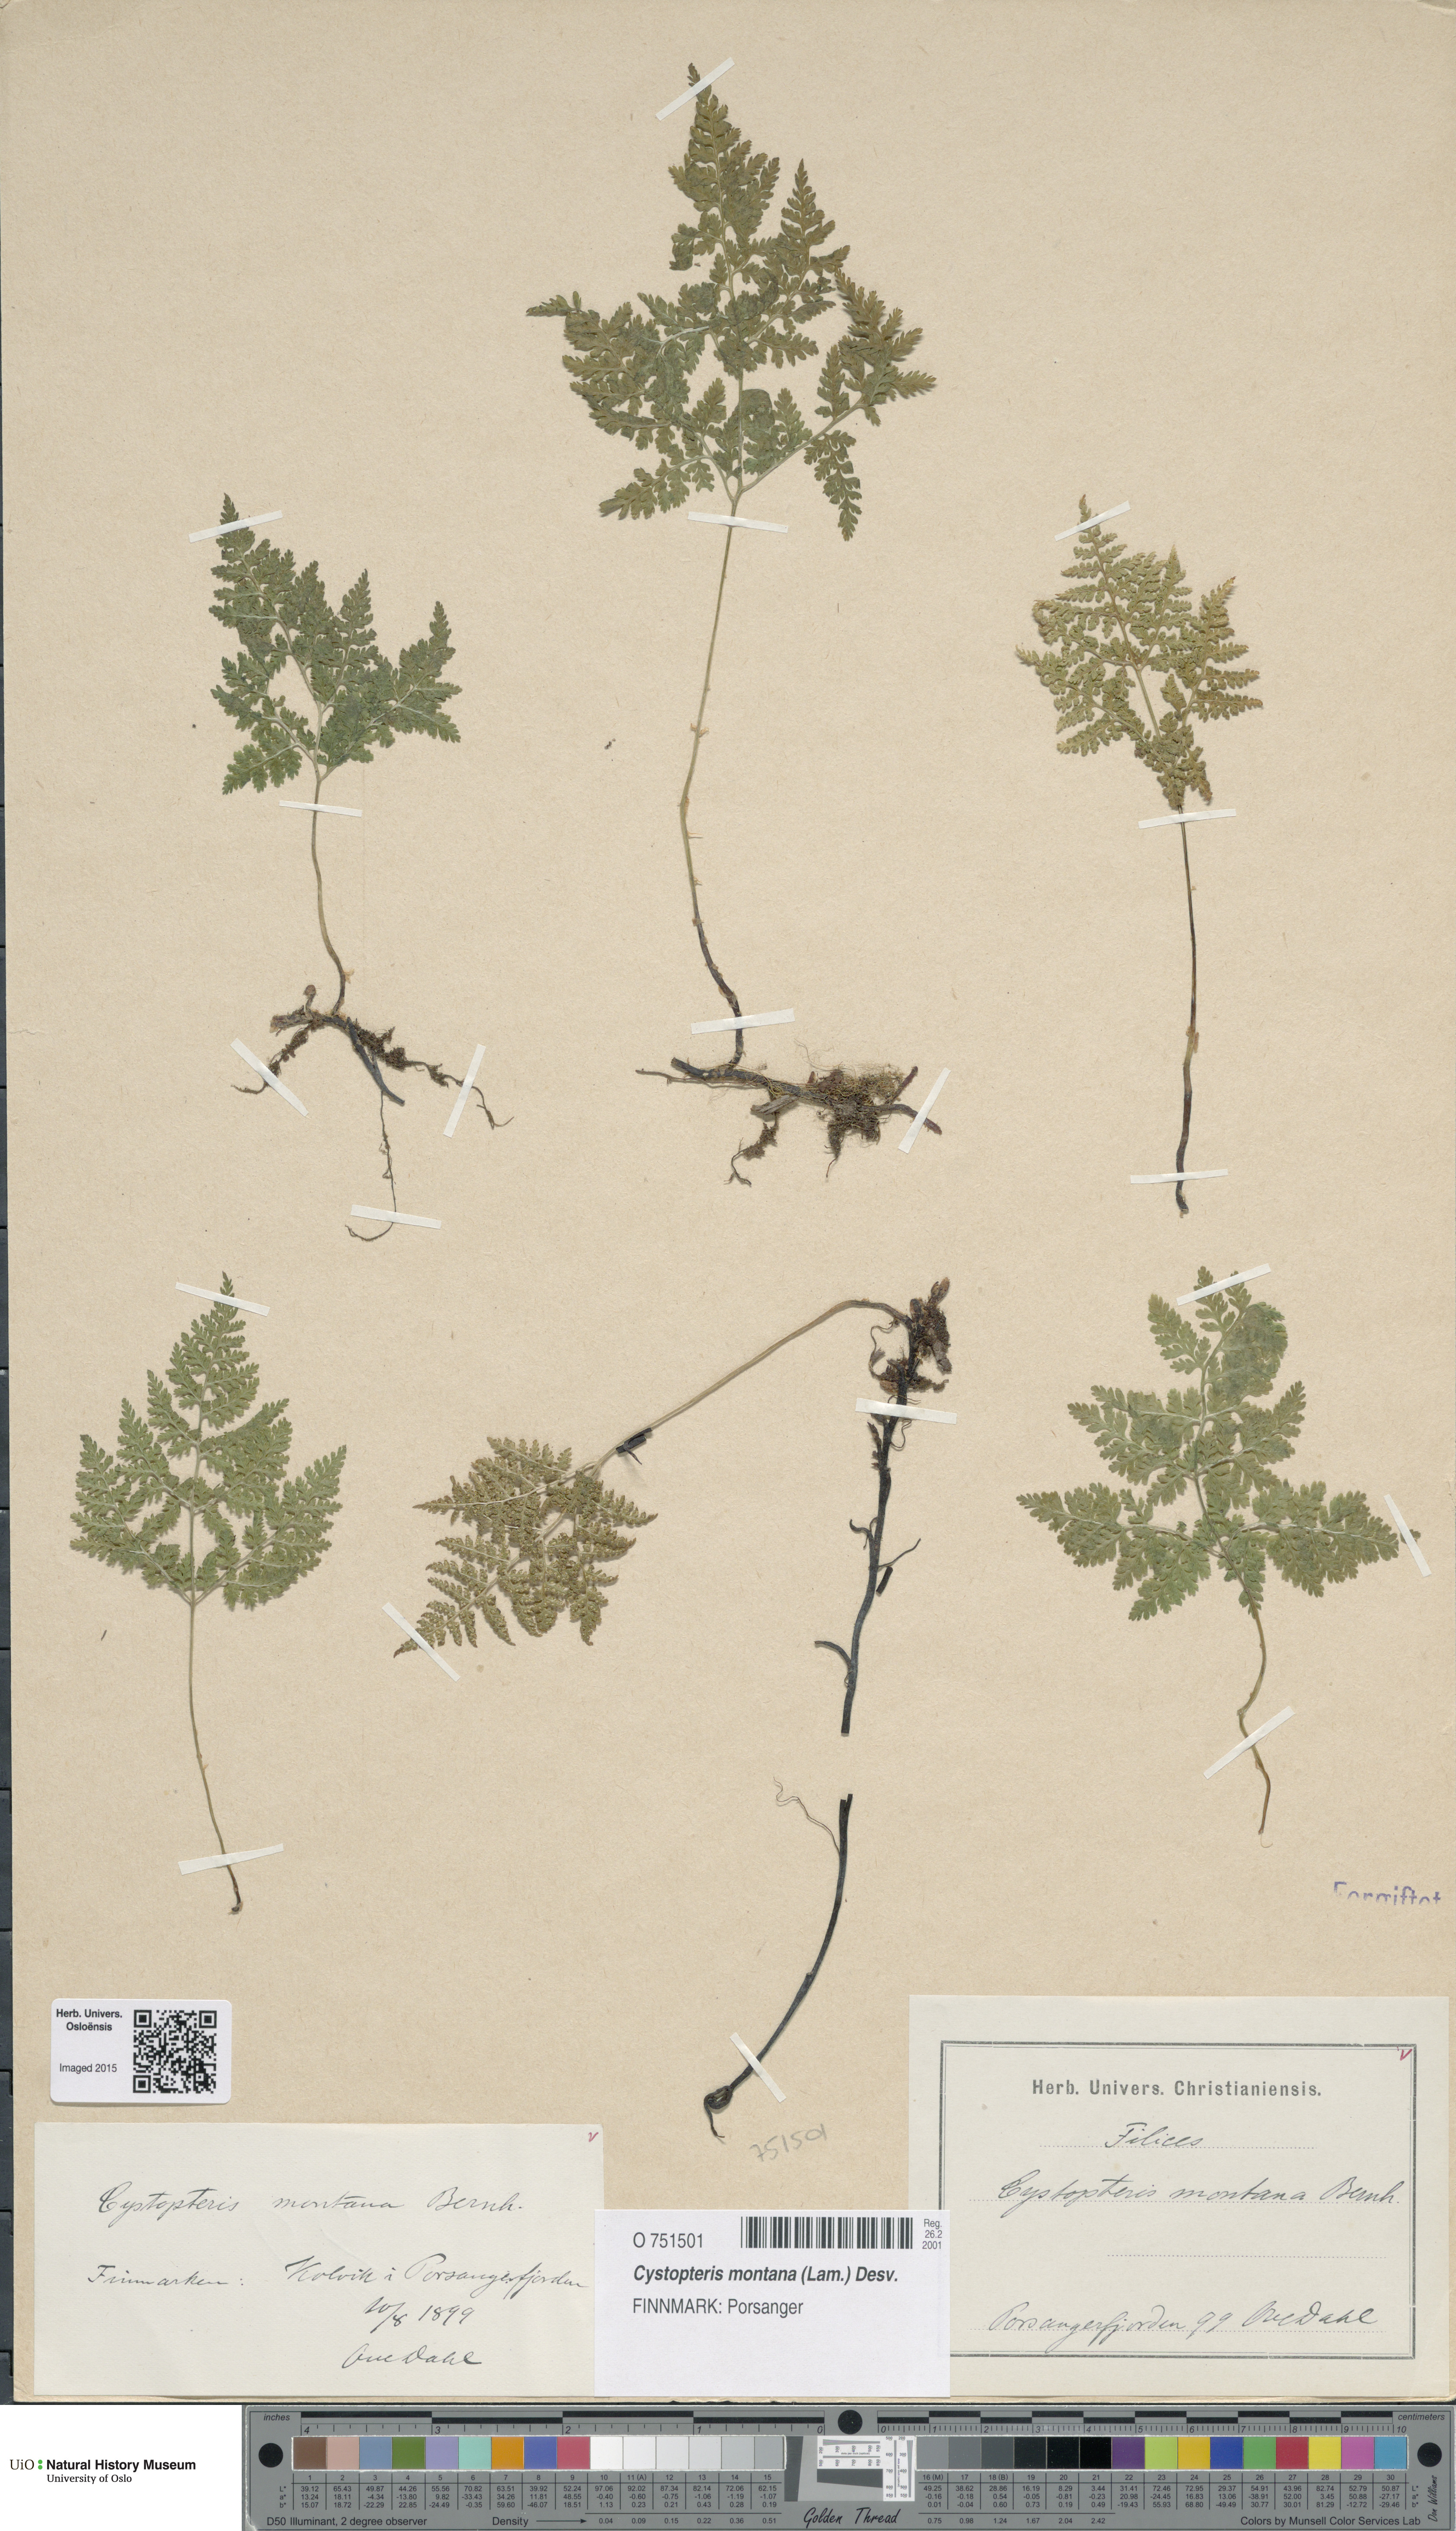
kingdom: Plantae
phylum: Tracheophyta
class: Polypodiopsida
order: Polypodiales
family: Cystopteridaceae
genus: Cystopteris
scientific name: Cystopteris montana
